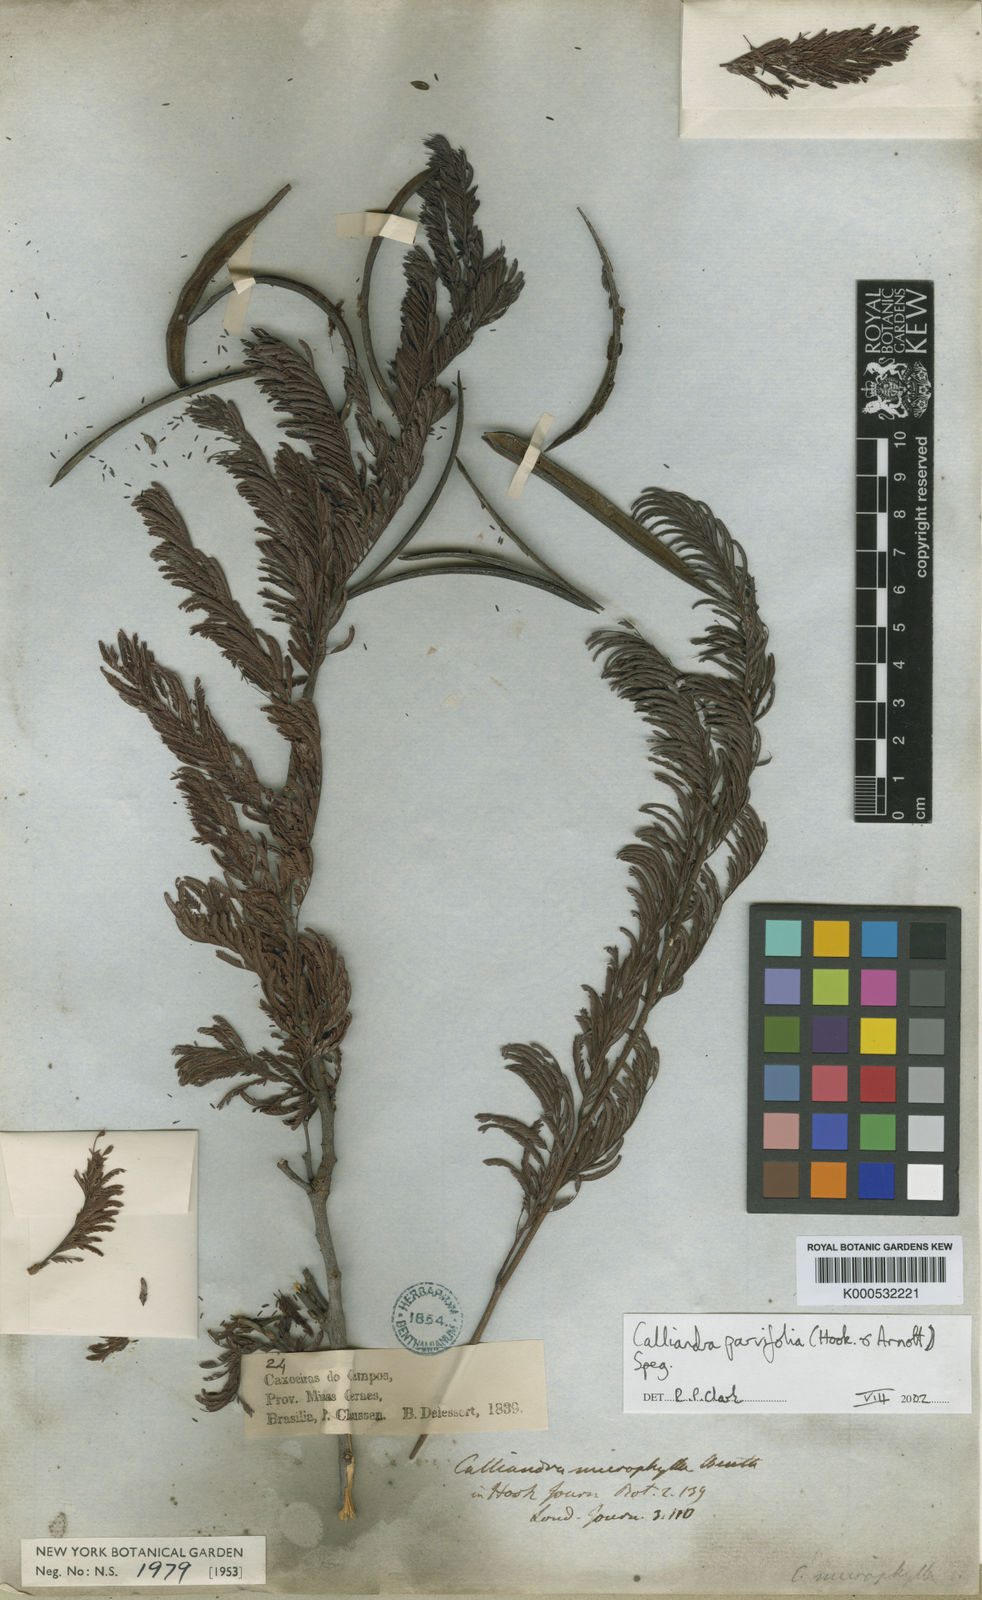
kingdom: Plantae
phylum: Tracheophyta
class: Magnoliopsida
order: Fabales
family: Fabaceae
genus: Calliandra
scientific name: Calliandra parvifolia
